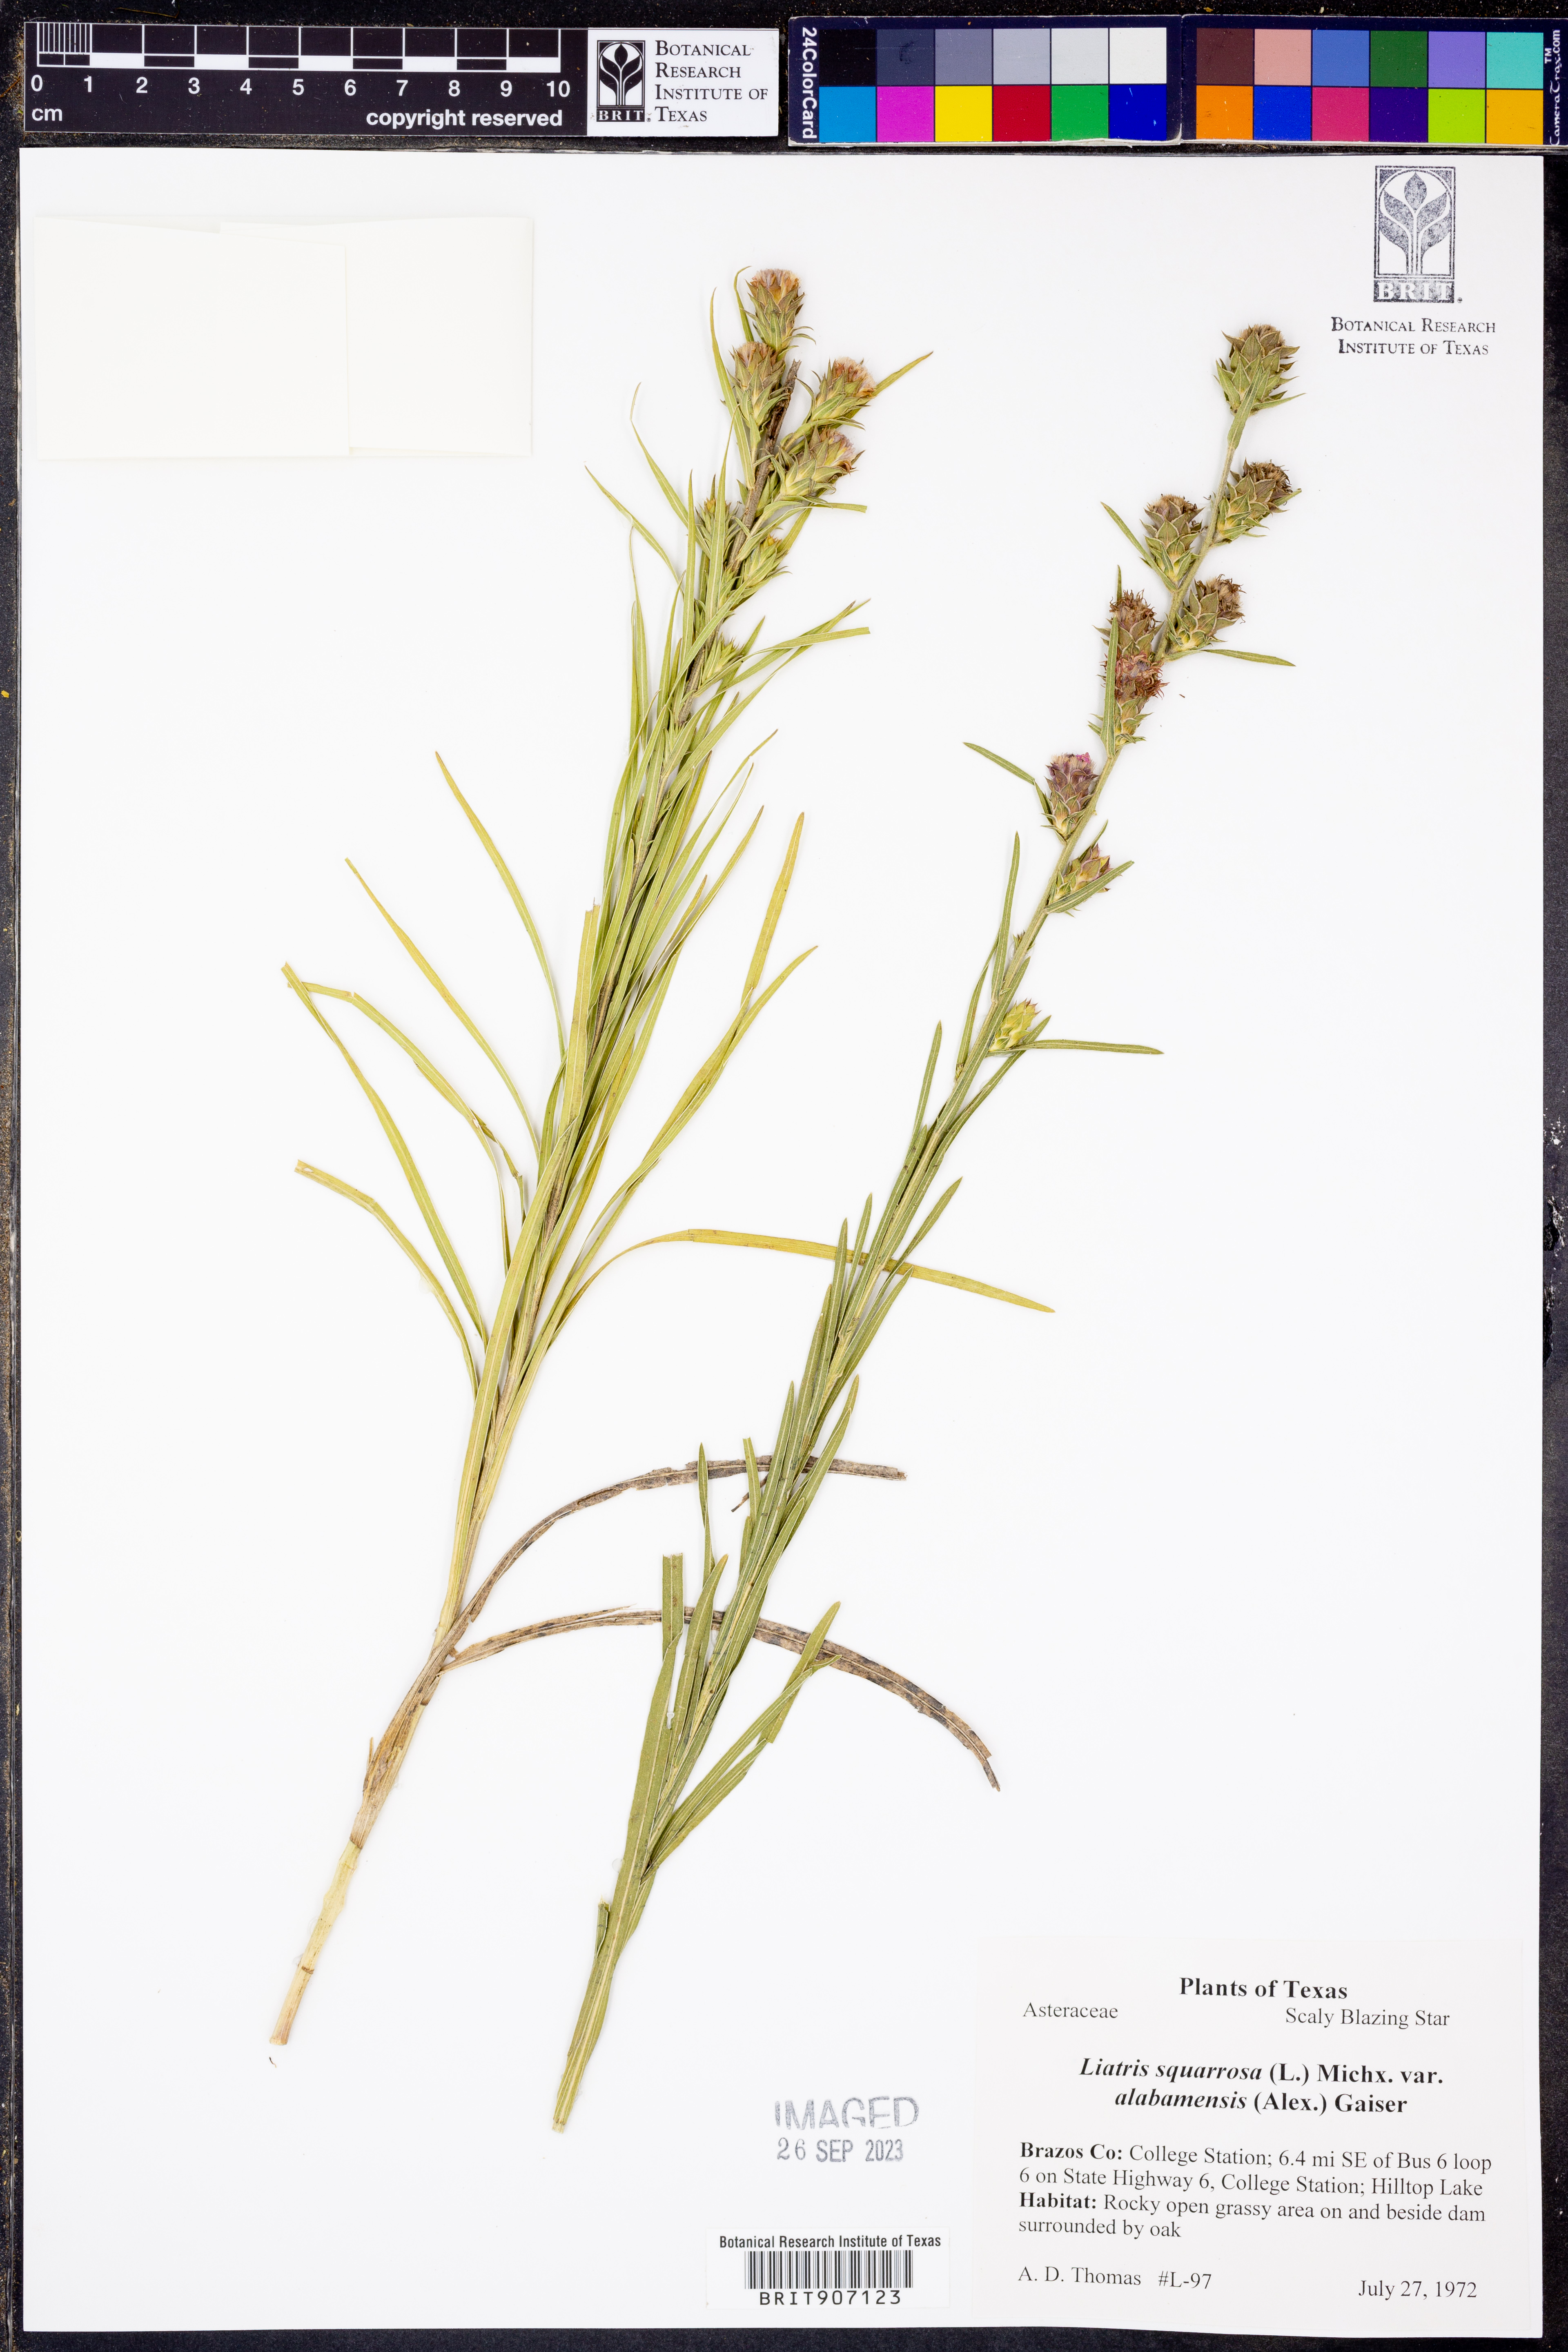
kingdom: Plantae
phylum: Tracheophyta
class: Magnoliopsida
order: Asterales
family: Asteraceae
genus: Liatris
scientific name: Liatris squarrosa
